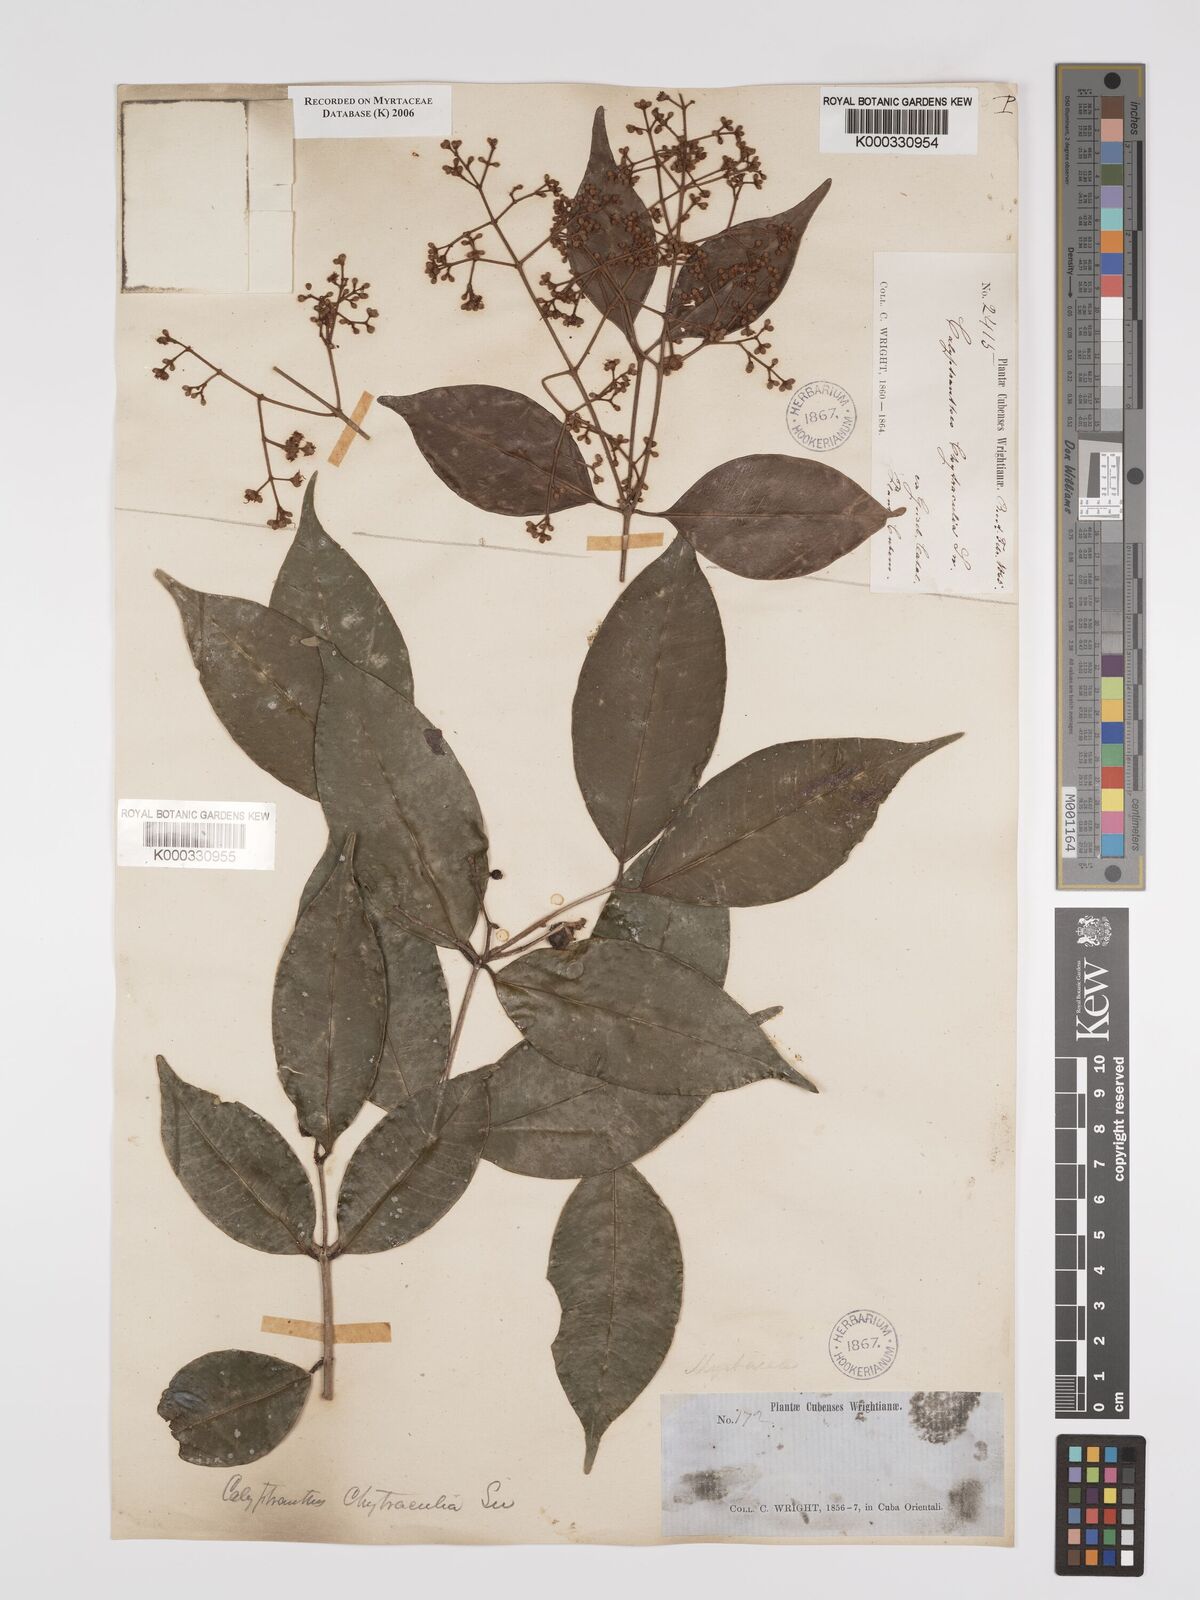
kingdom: Plantae
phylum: Tracheophyta
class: Magnoliopsida
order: Myrtales
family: Myrtaceae
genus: Myrcia
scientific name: Myrcia chytraculia
